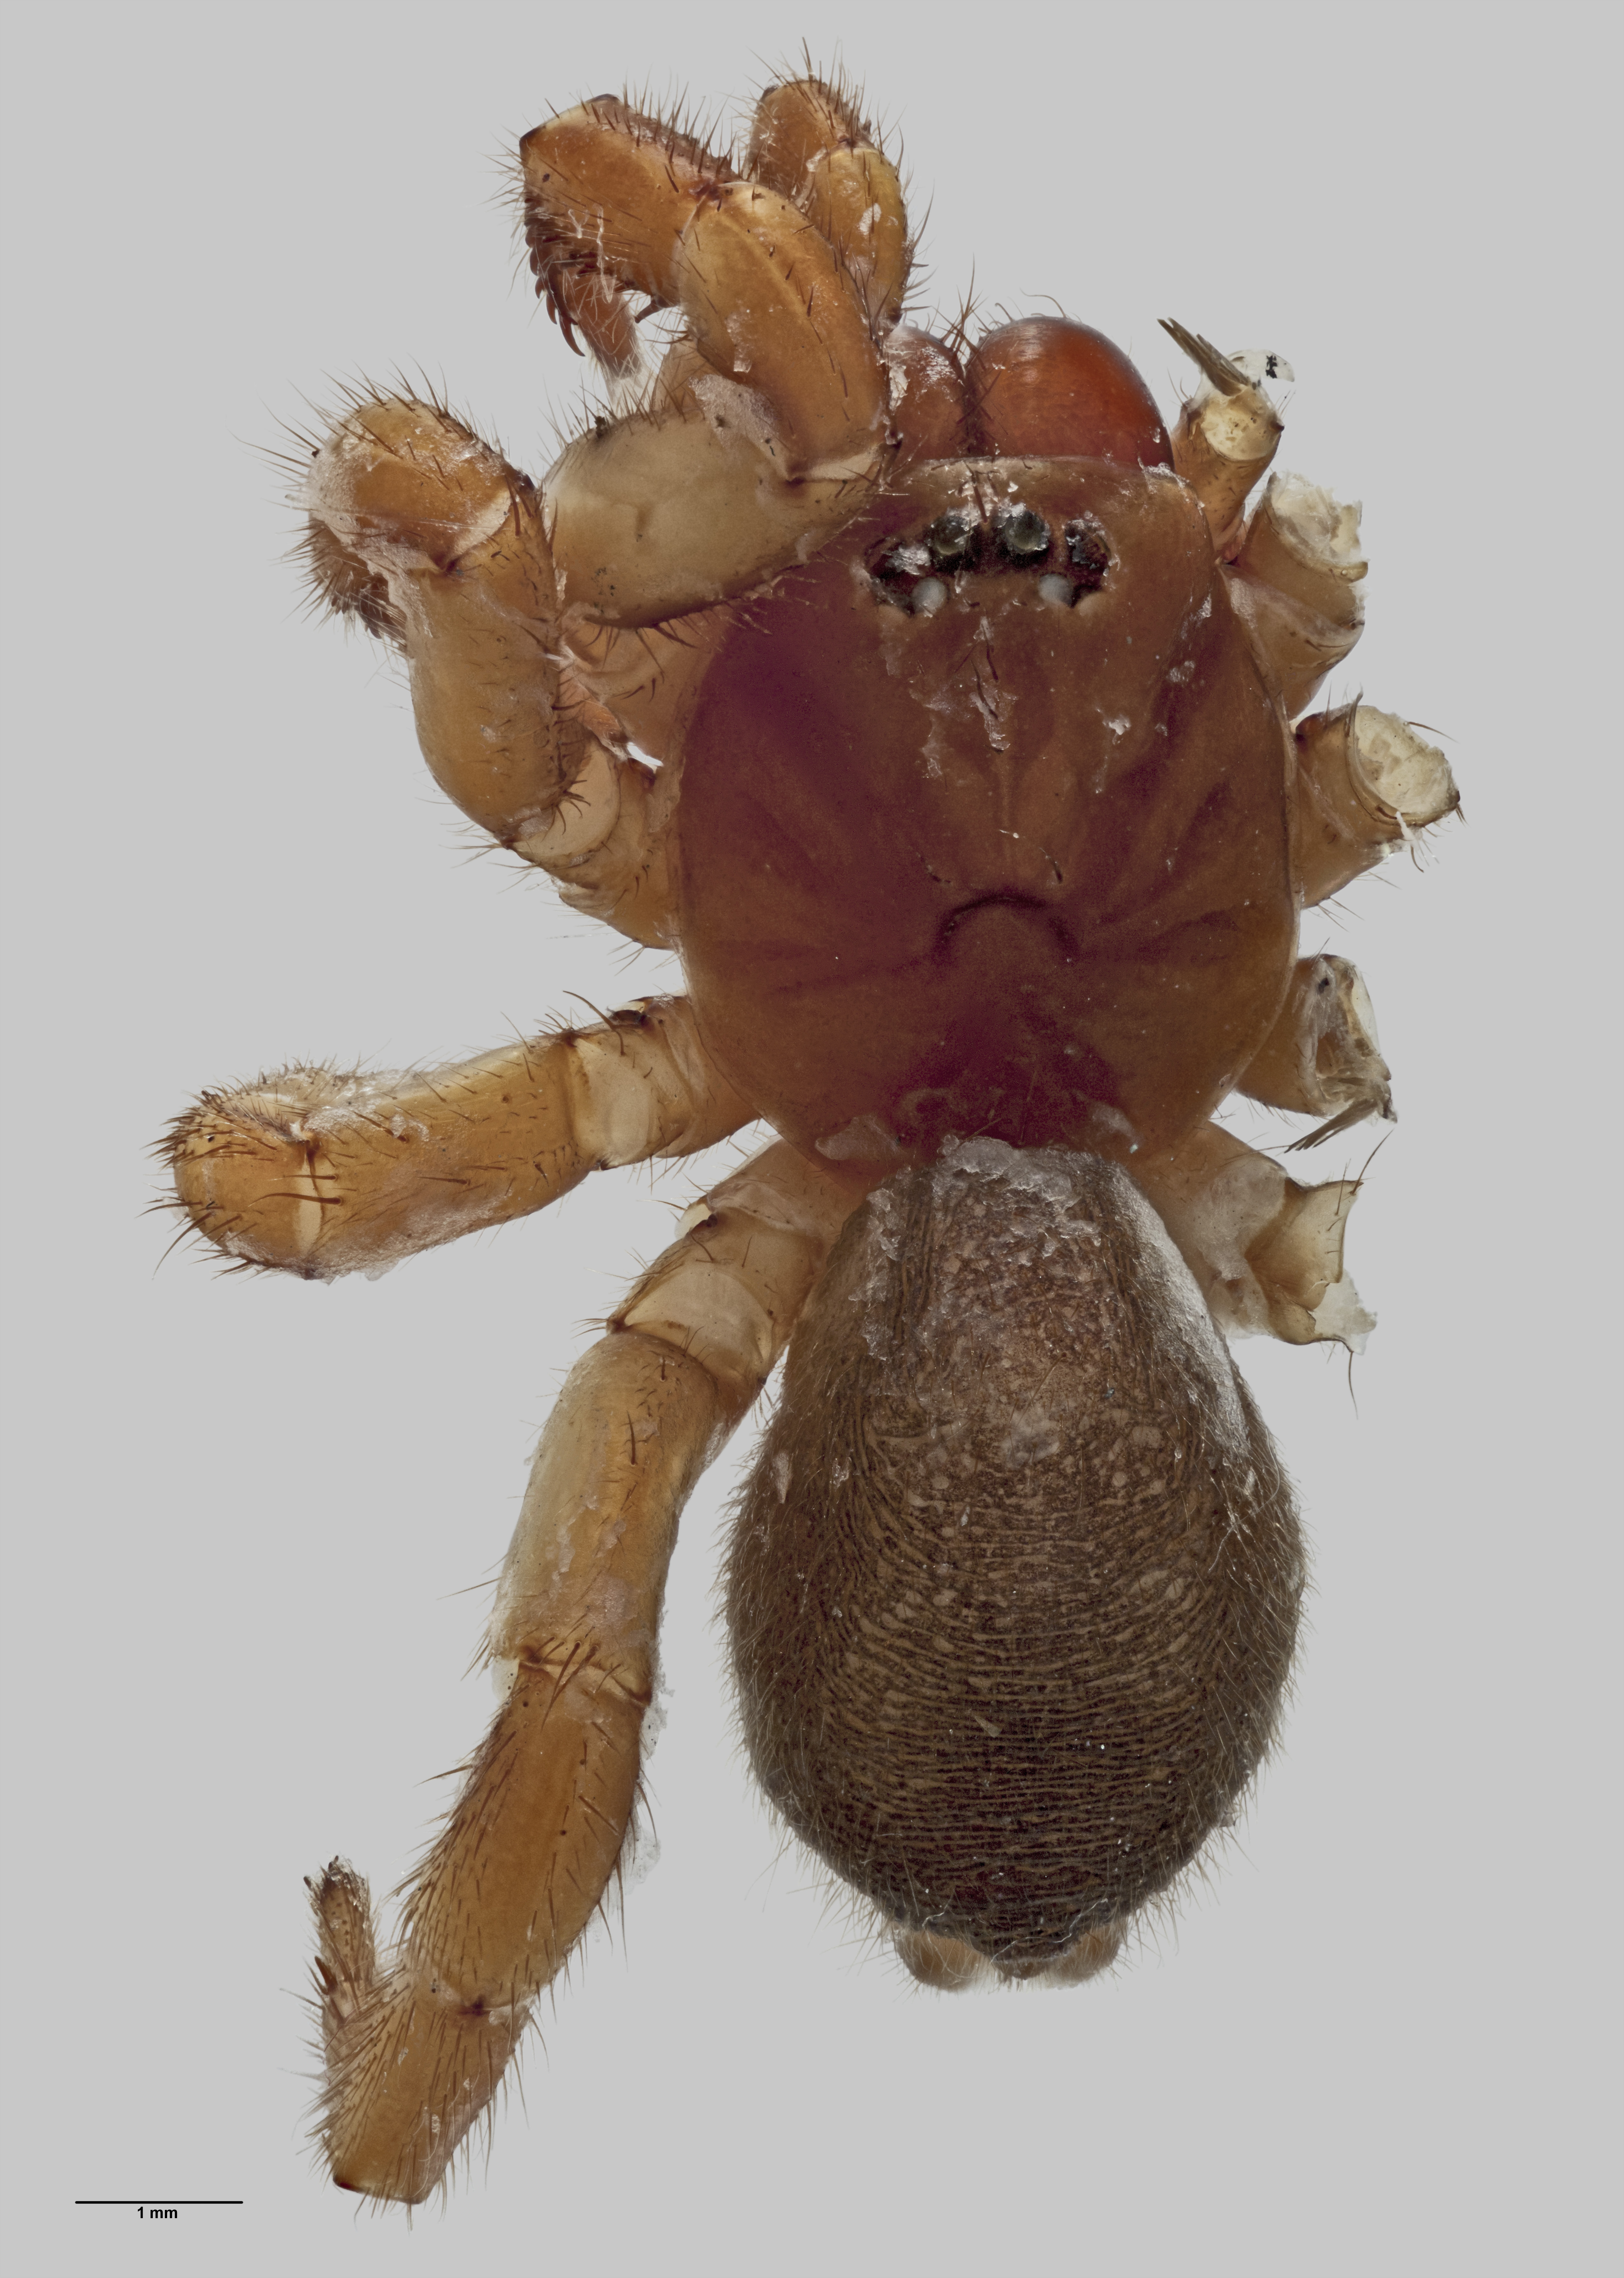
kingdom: Animalia
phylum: Arthropoda
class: Arachnida
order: Araneae
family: Migidae
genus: Migas
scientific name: Migas insularis
